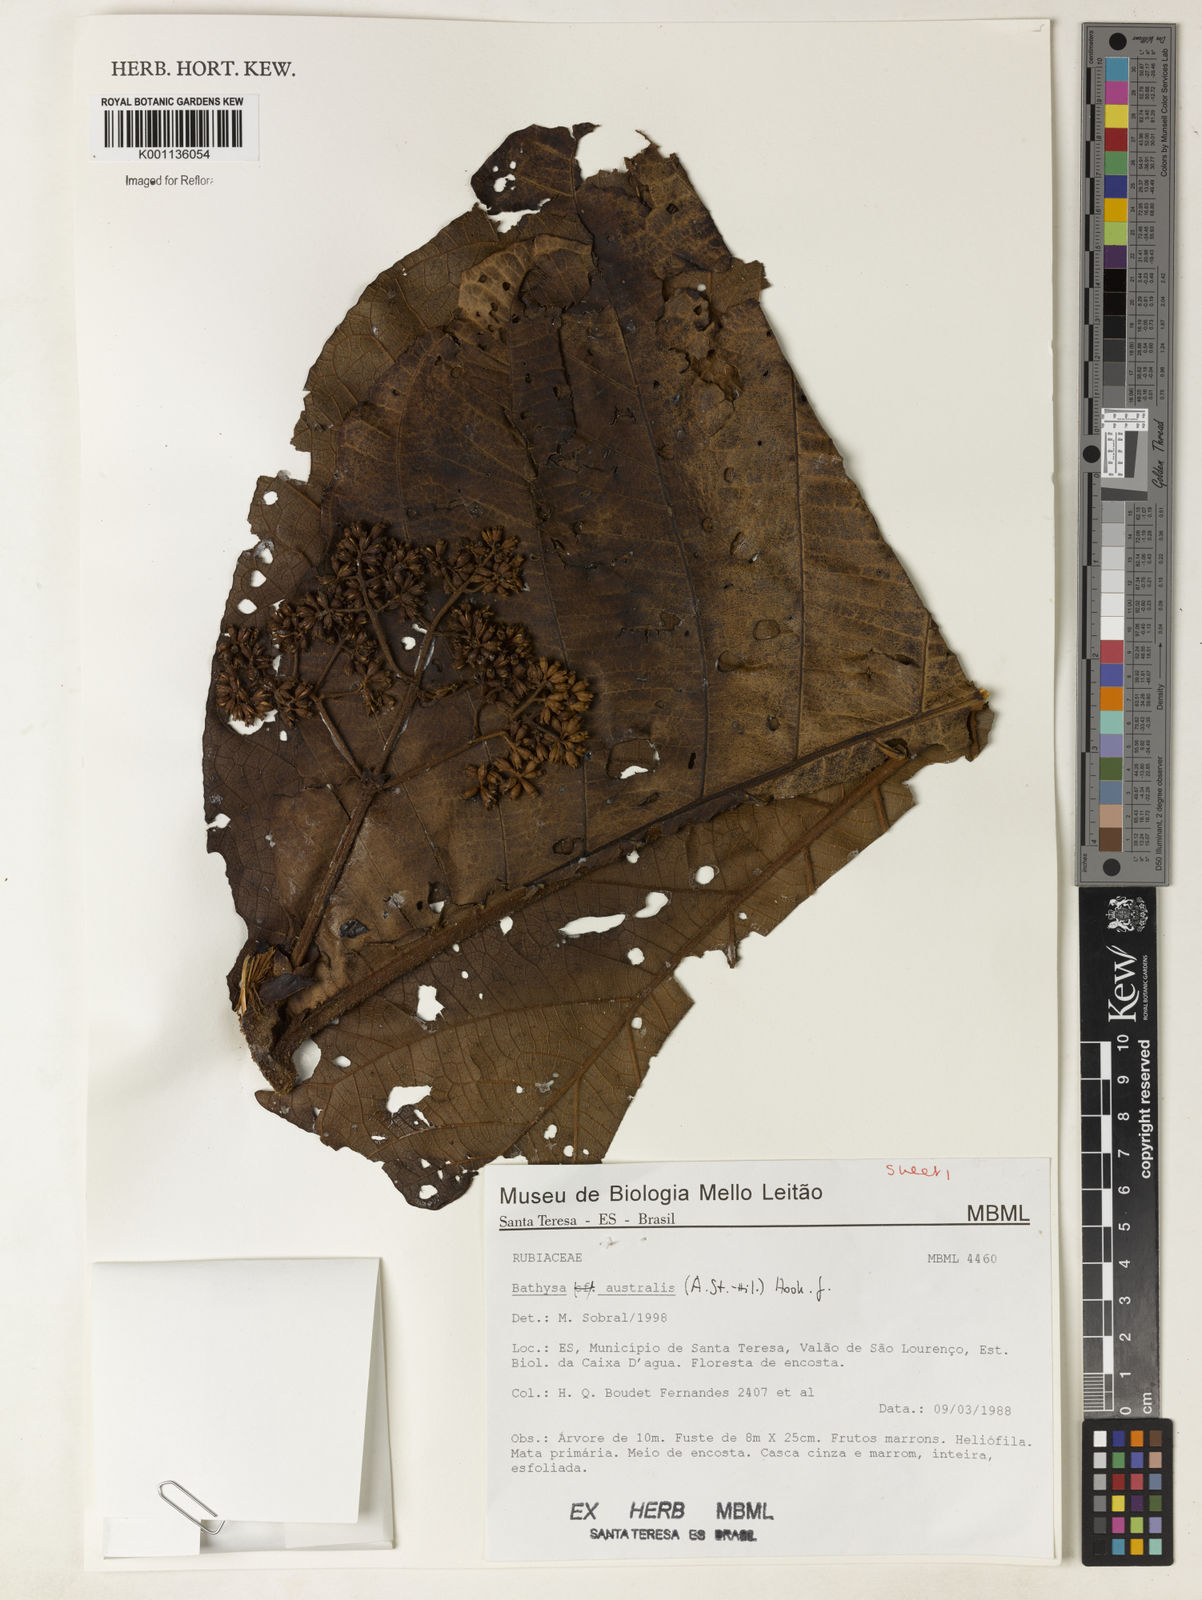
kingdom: Plantae
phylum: Tracheophyta
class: Magnoliopsida
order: Gentianales
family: Rubiaceae
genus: Bathysa
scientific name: Bathysa australis
